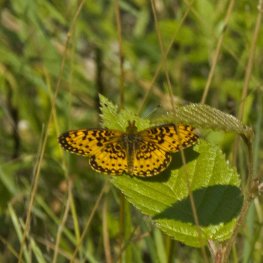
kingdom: Animalia
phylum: Arthropoda
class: Insecta
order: Lepidoptera
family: Nymphalidae
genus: Boloria
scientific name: Boloria selene
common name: Silver-bordered Fritillary
